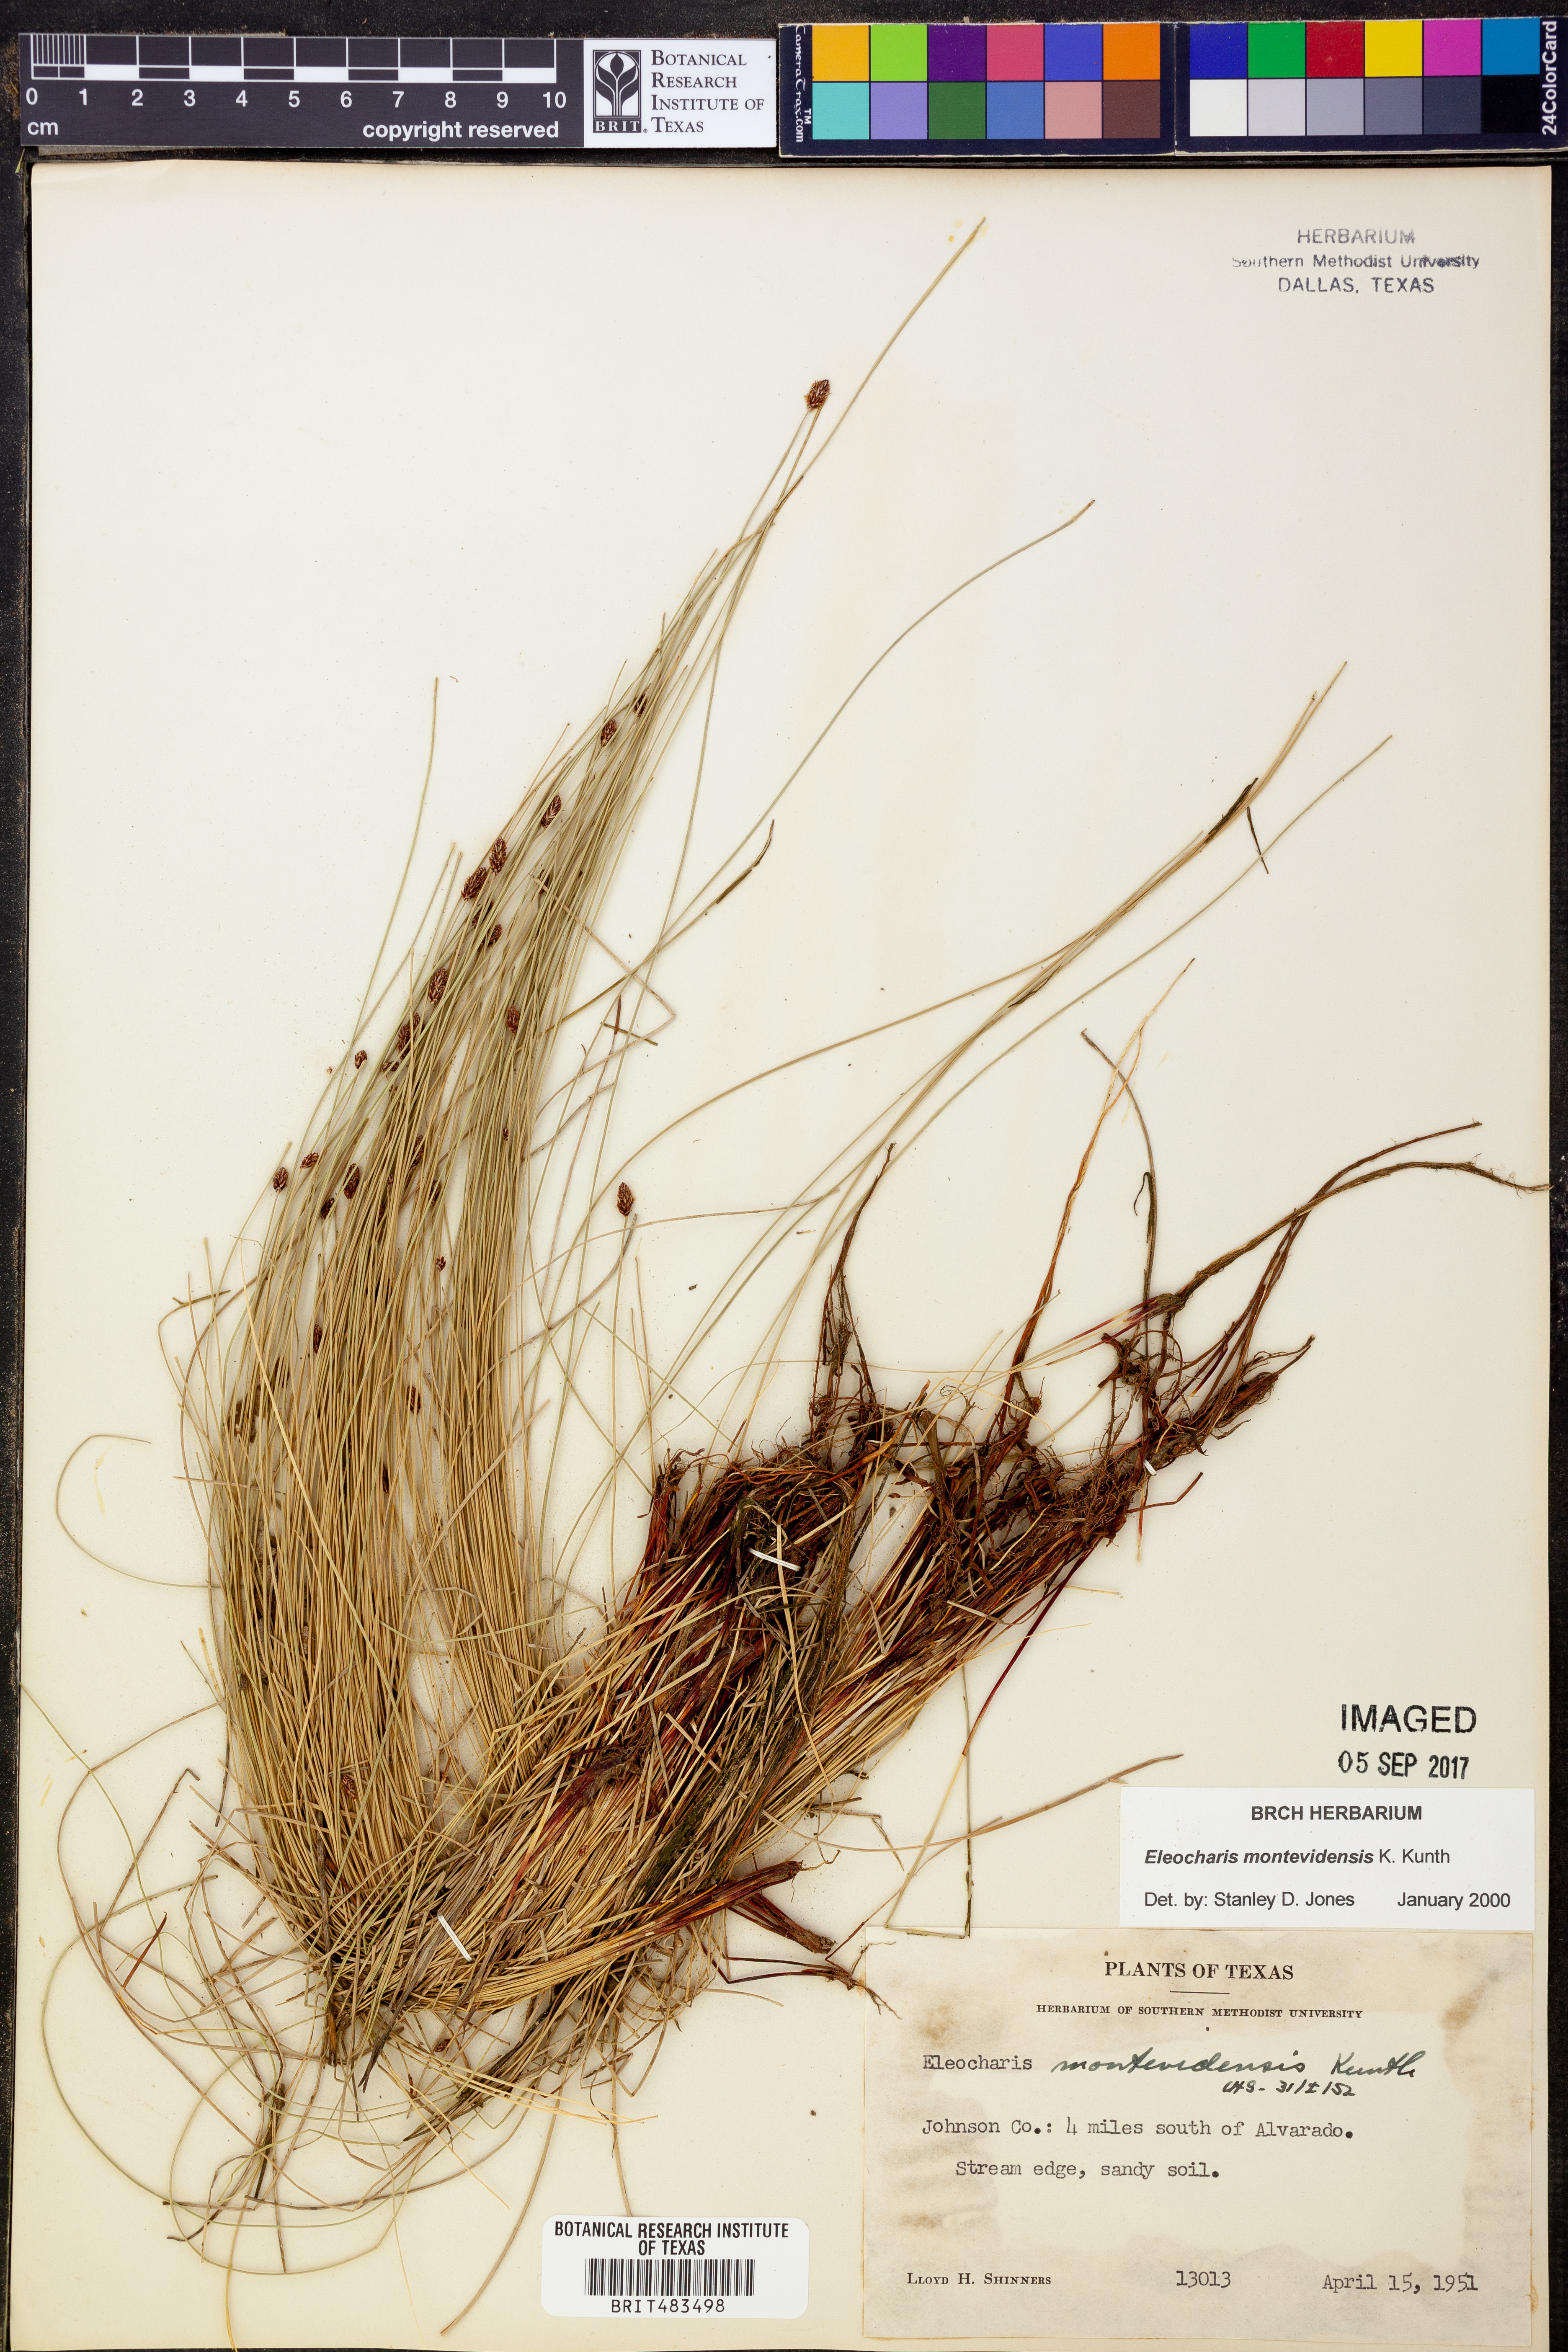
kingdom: Plantae
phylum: Tracheophyta
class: Liliopsida
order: Poales
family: Cyperaceae
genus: Eleocharis
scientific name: Eleocharis montevidensis
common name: Sand spike-rush
